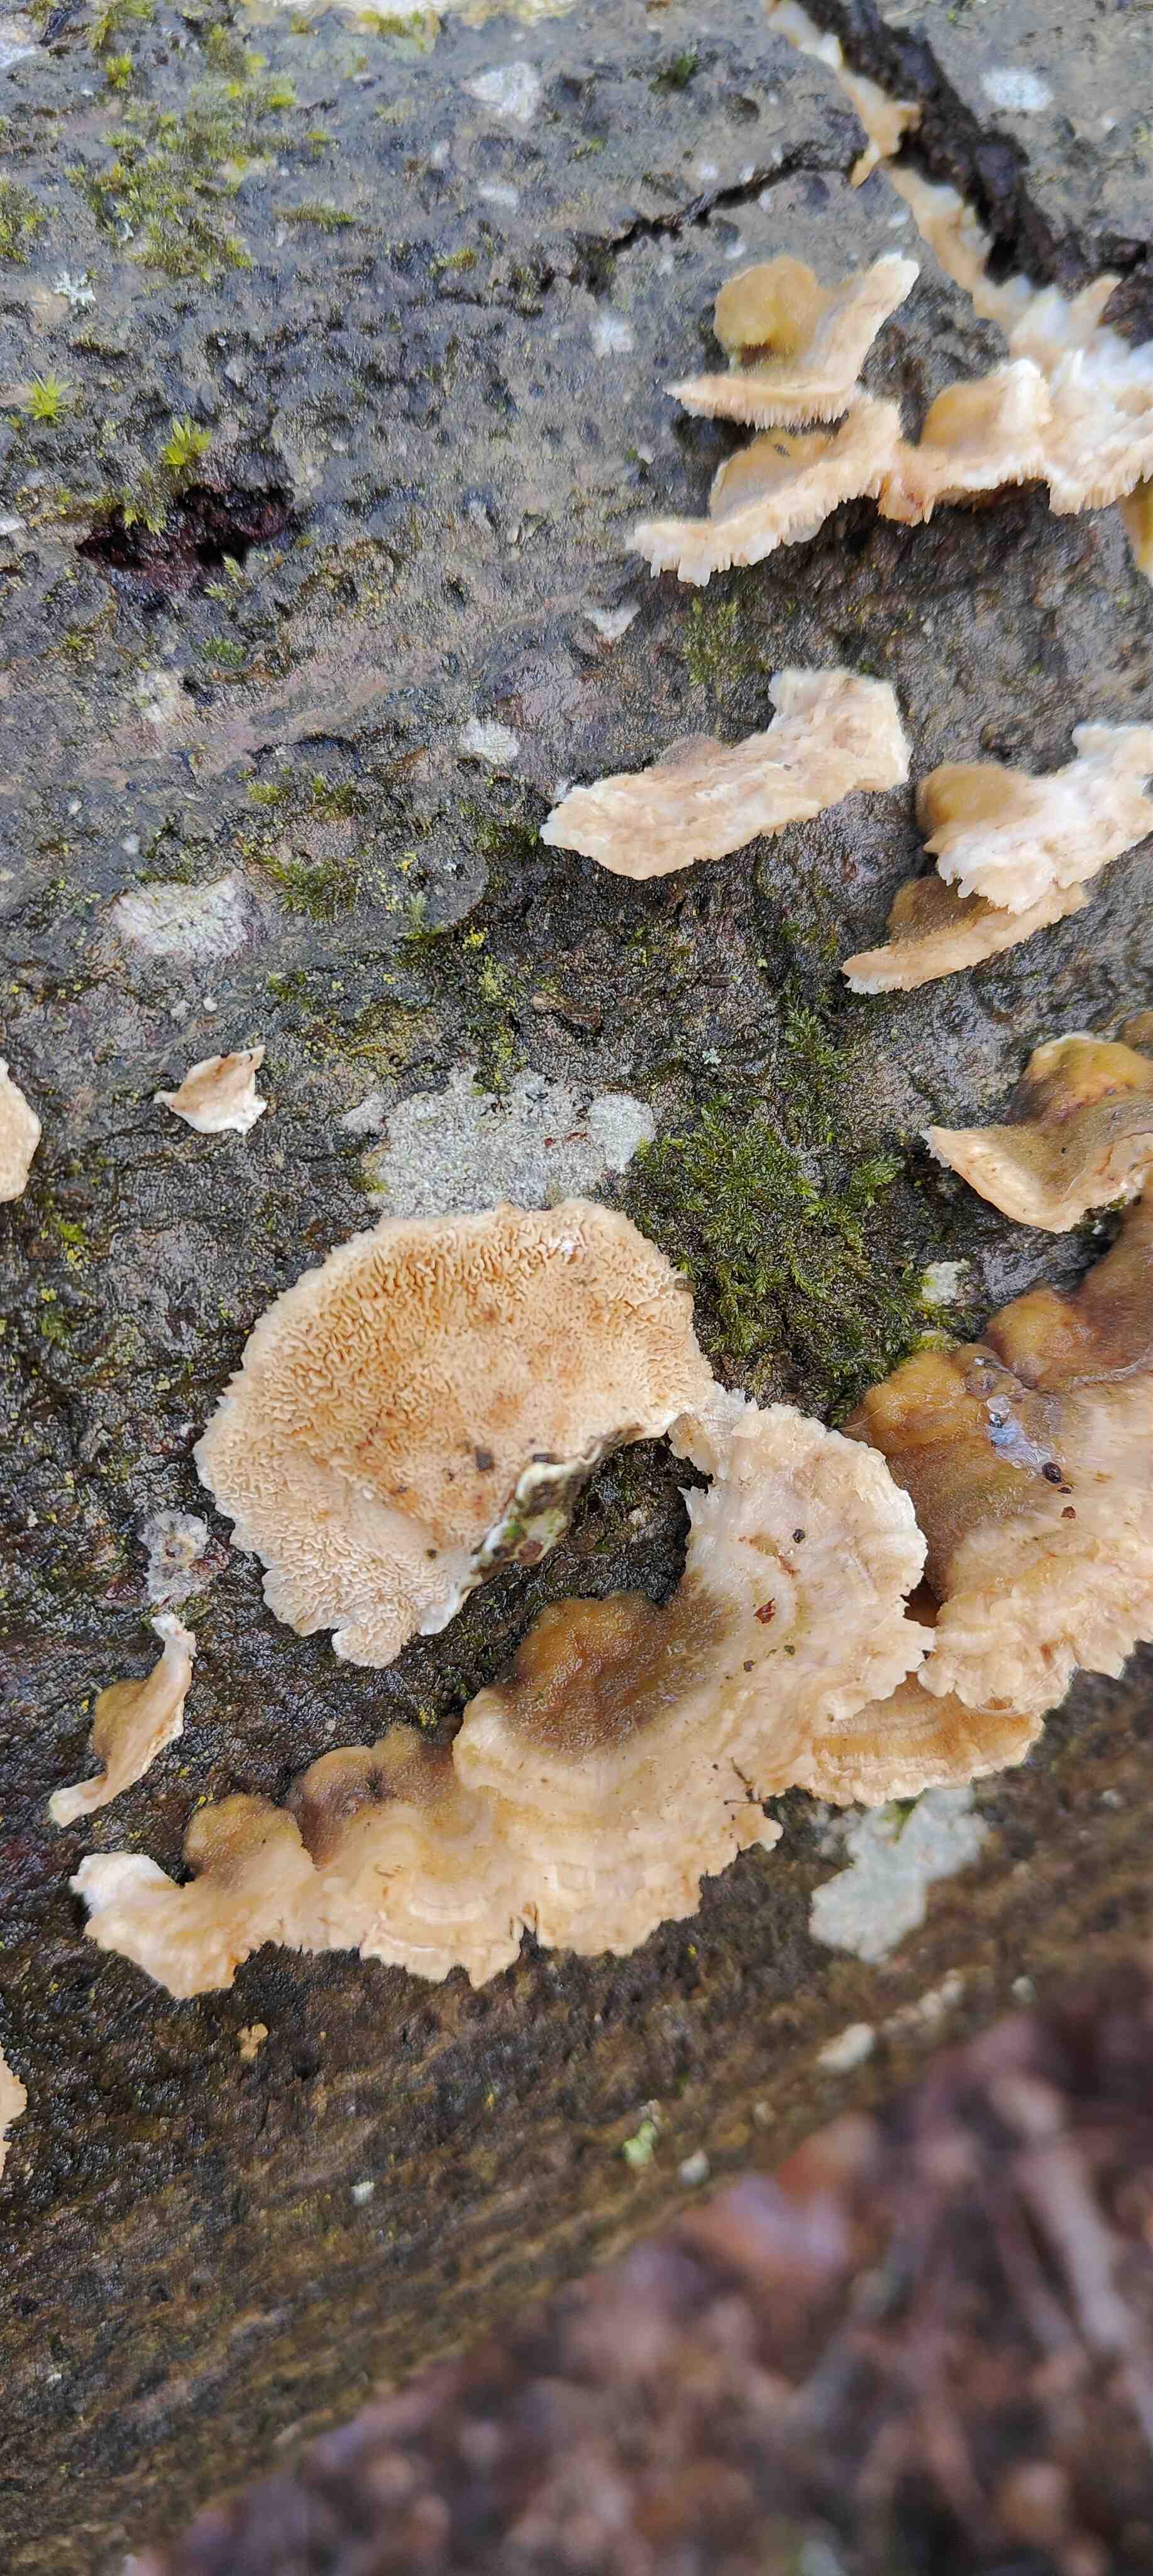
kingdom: Fungi
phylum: Basidiomycota
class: Agaricomycetes
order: Polyporales
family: Polyporaceae
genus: Trametes
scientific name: Trametes
